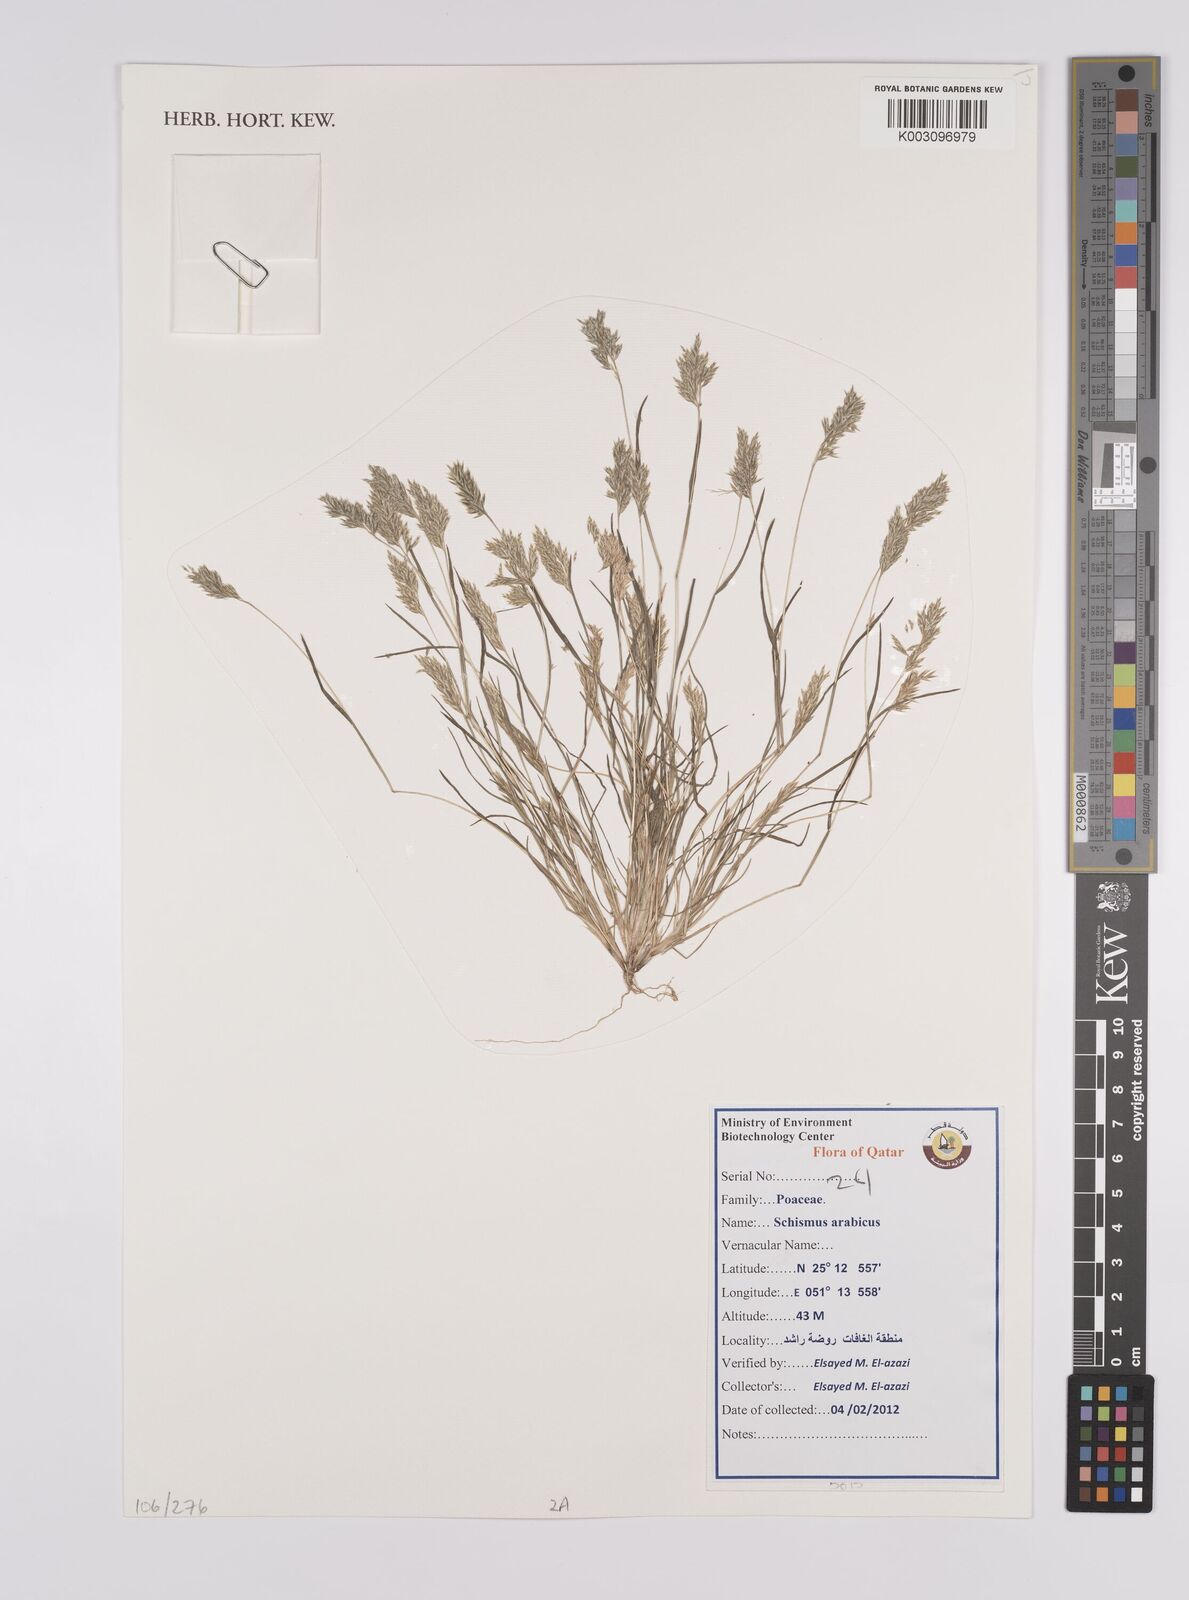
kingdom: Plantae
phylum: Tracheophyta
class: Liliopsida
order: Poales
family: Poaceae
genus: Schismus
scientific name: Schismus arabicus
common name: Arabian schismus
